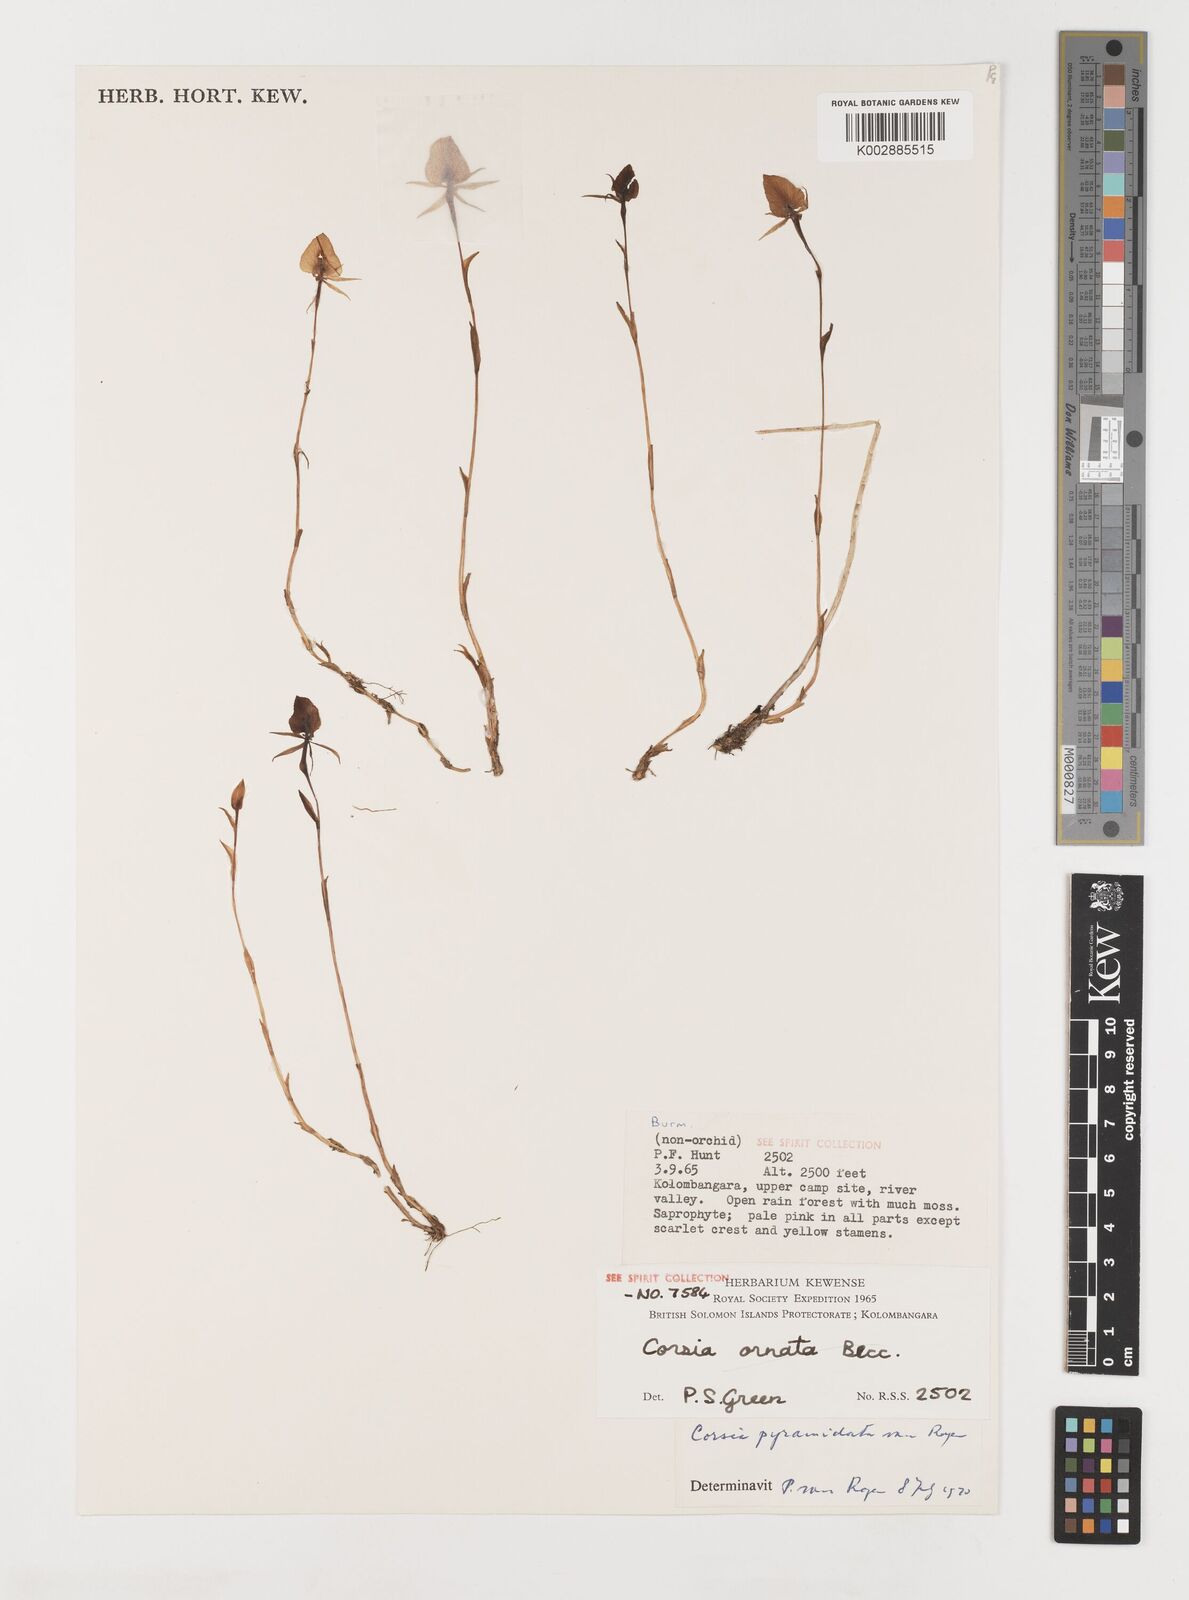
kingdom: Plantae
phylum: Tracheophyta
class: Liliopsida
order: Liliales
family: Corsiaceae
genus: Corsia
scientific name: Corsia pyramidata
